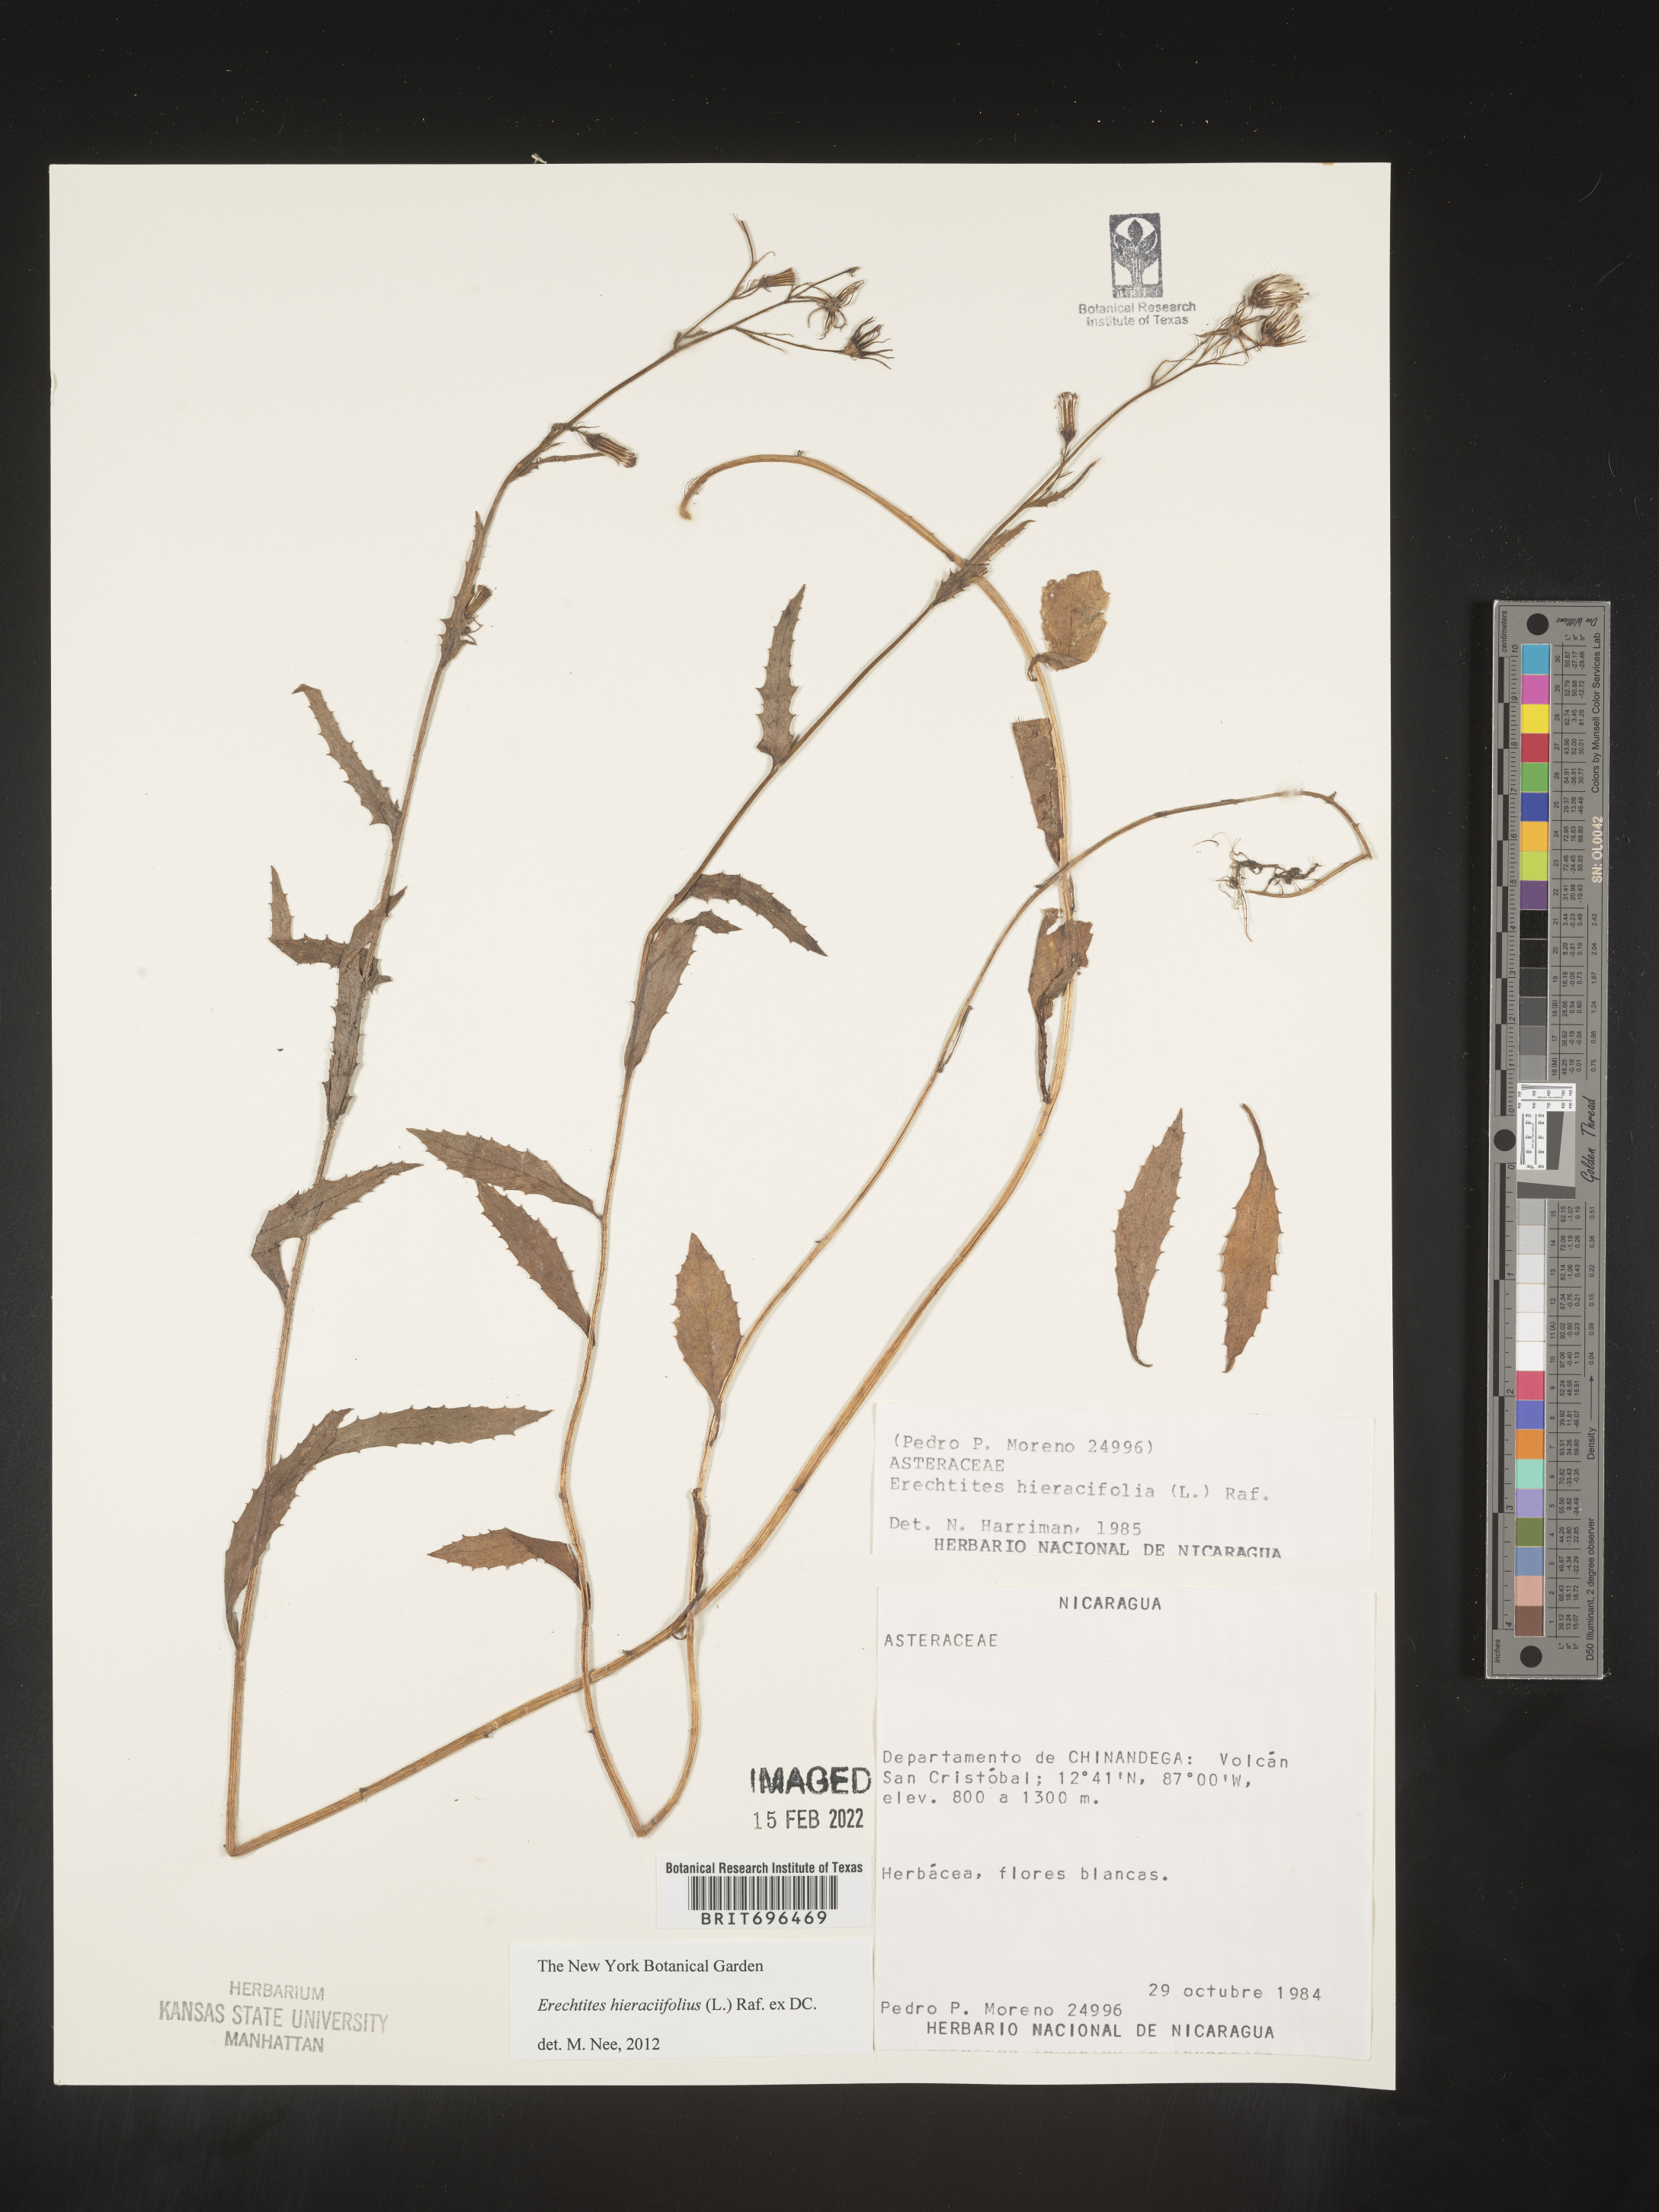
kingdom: Plantae
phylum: Tracheophyta
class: Magnoliopsida
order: Asterales
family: Asteraceae
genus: Erechtites
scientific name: Erechtites
